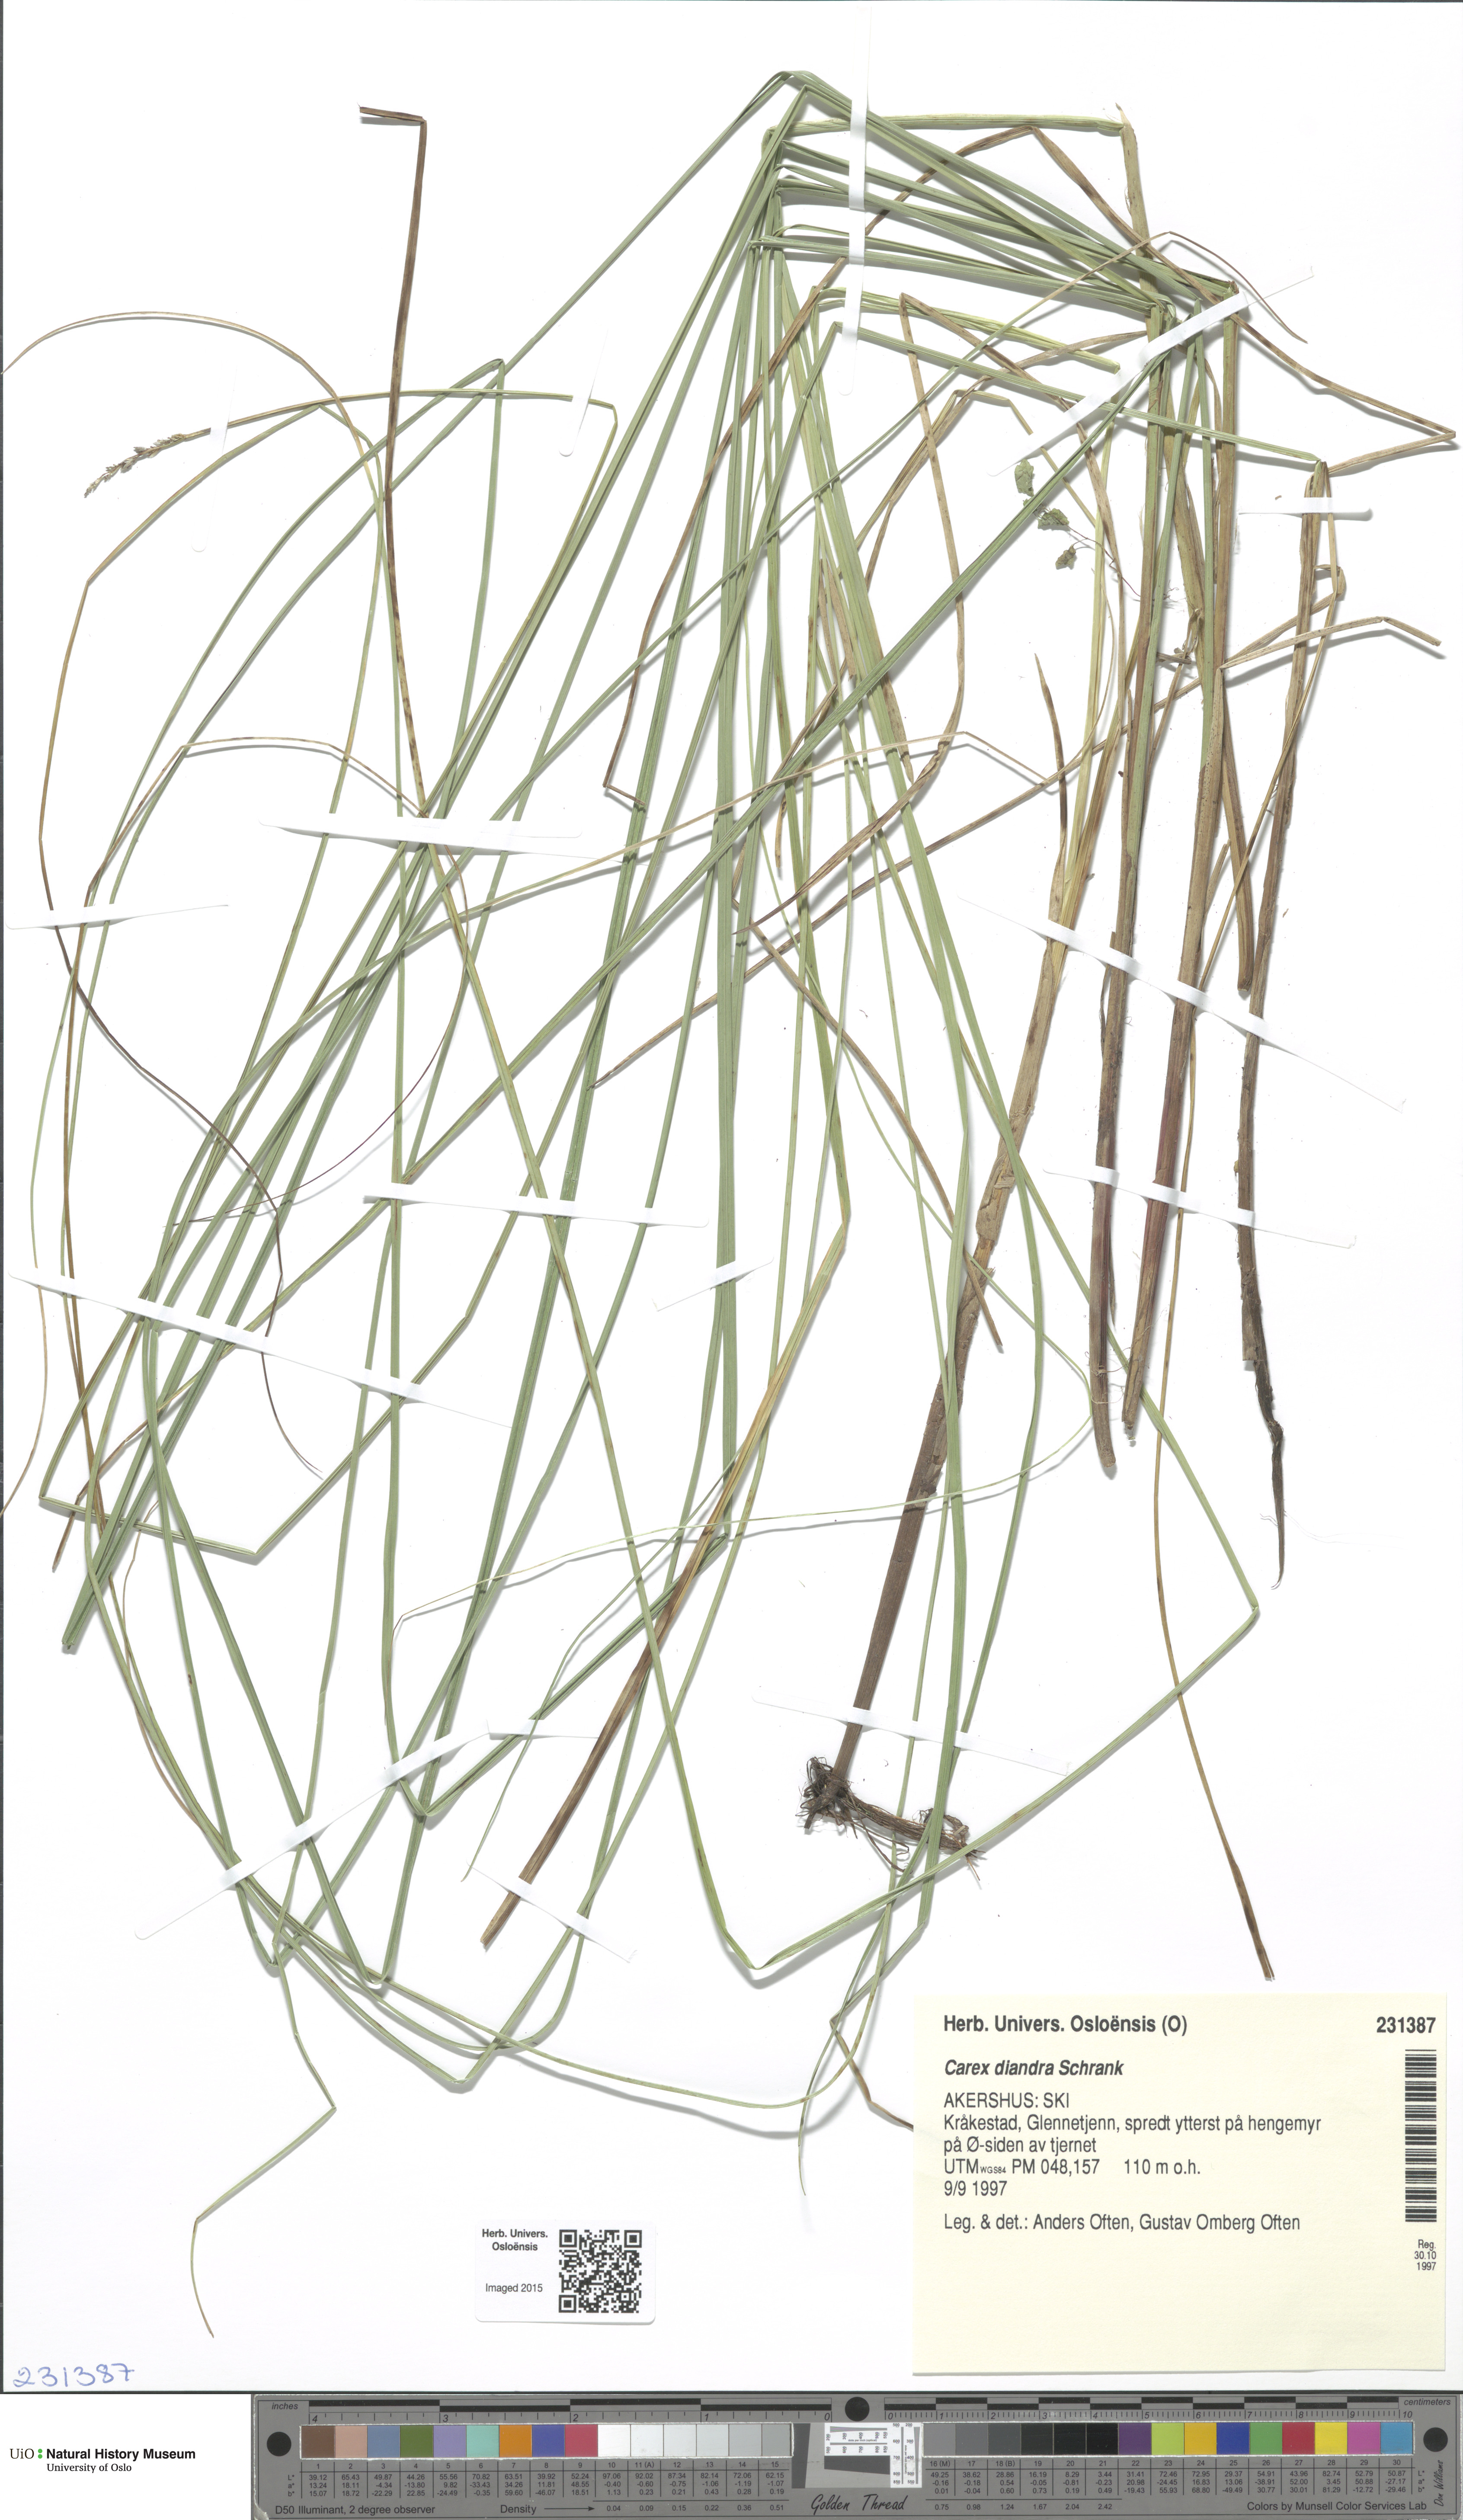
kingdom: Plantae
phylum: Tracheophyta
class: Liliopsida
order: Poales
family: Cyperaceae
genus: Carex
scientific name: Carex diandra
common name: Lesser tussock-sedge
